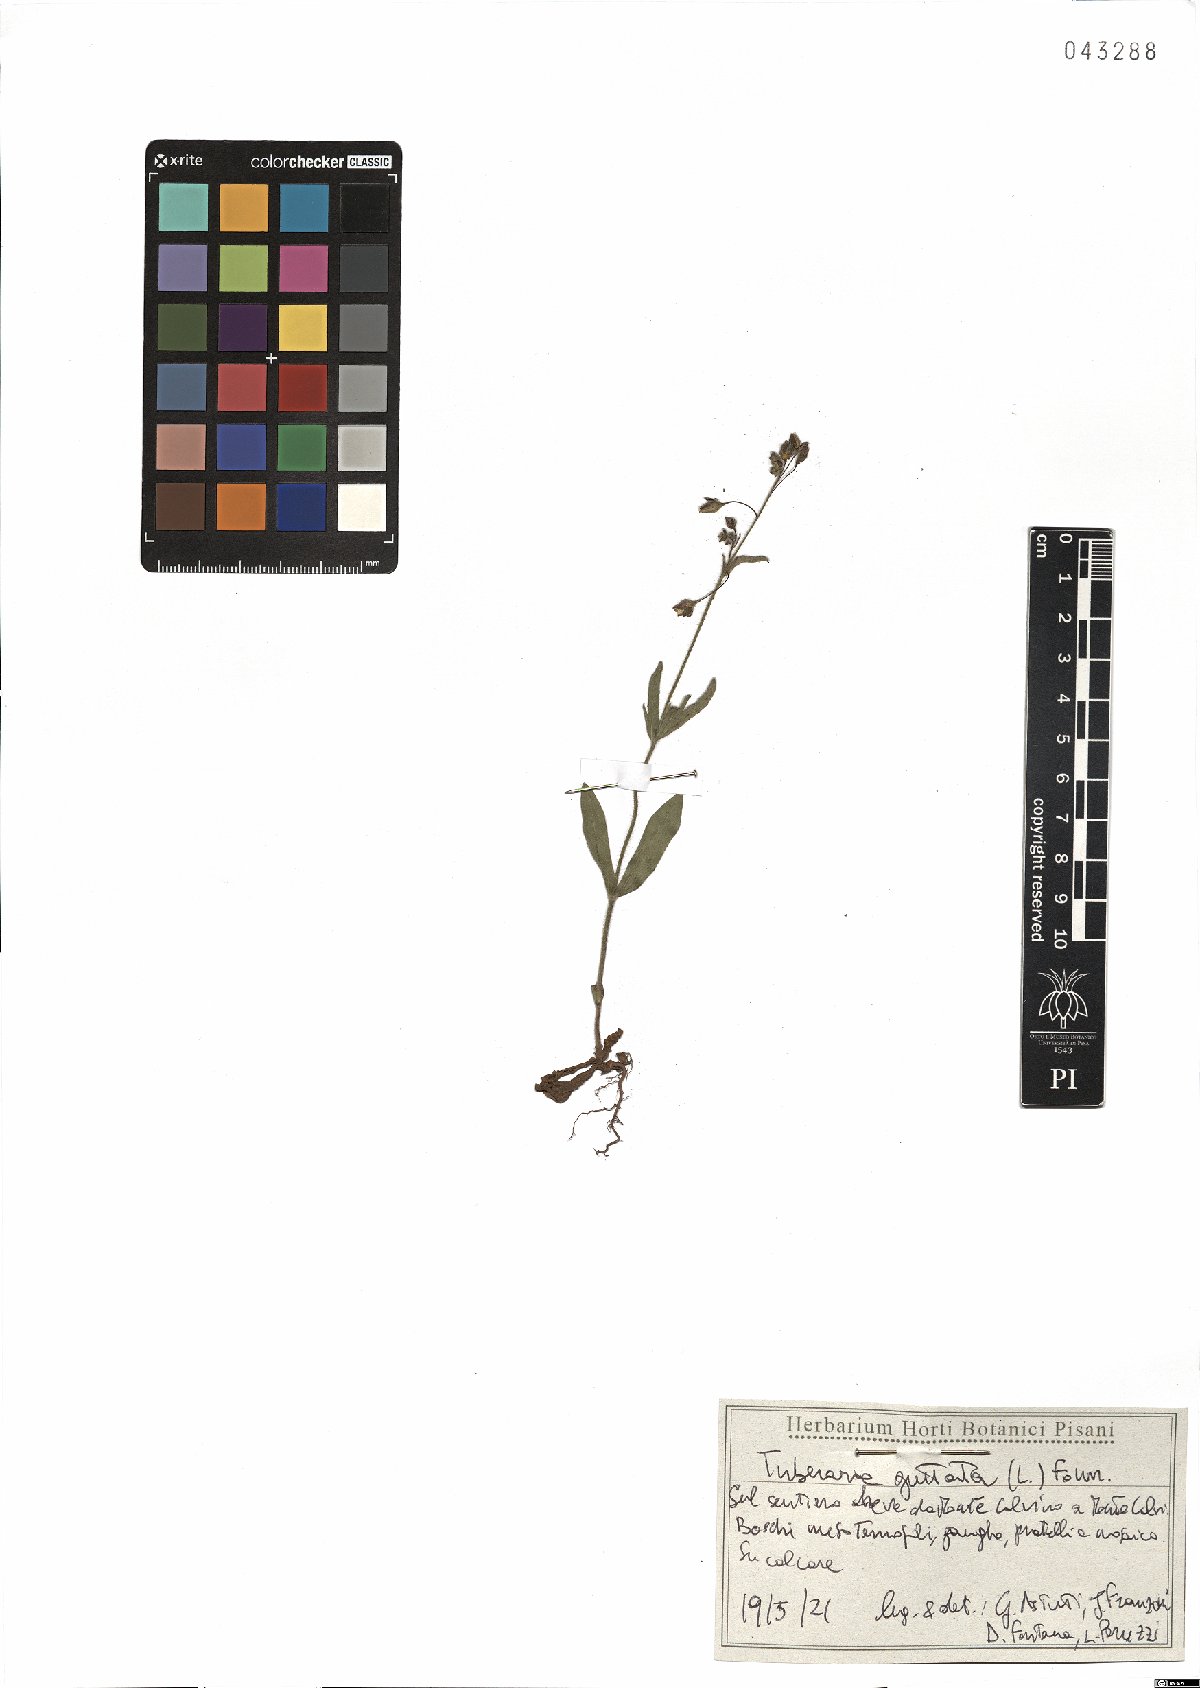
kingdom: Plantae
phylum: Tracheophyta
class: Magnoliopsida
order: Malvales
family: Cistaceae
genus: Tuberaria
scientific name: Tuberaria guttata
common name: Spotted rock-rose
